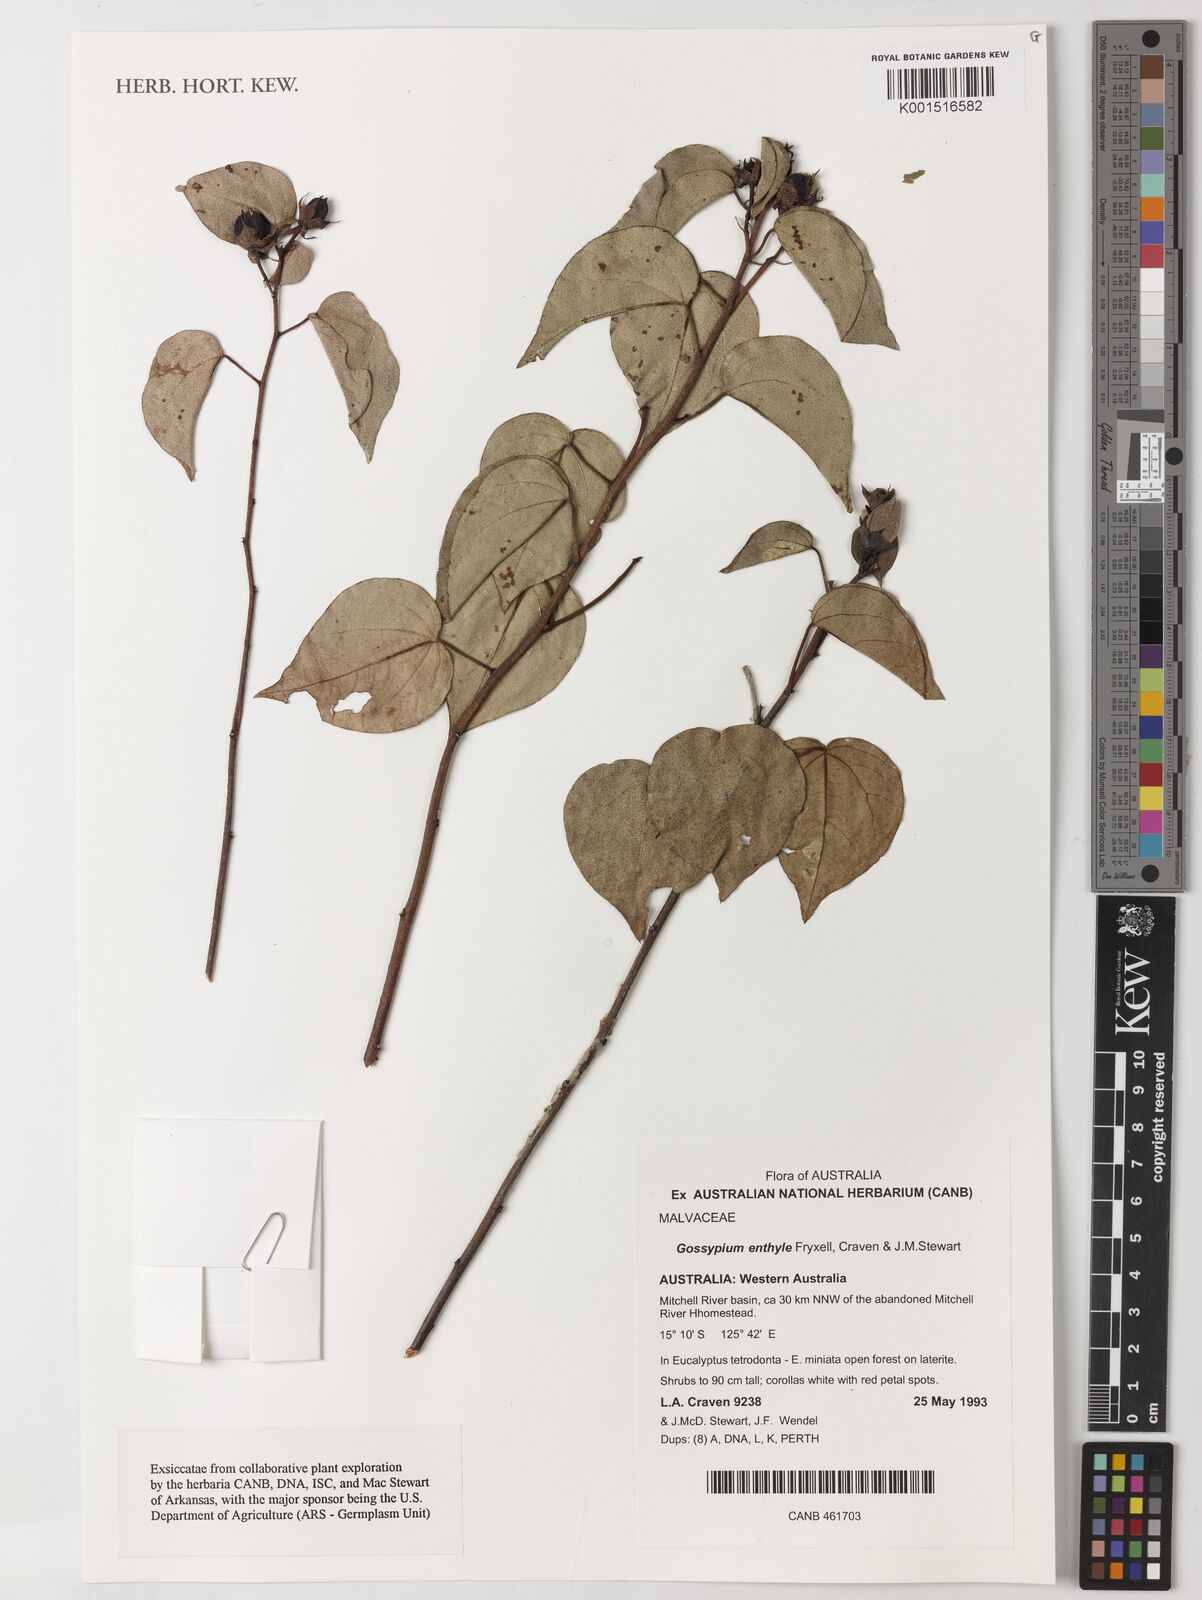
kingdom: Plantae
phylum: Tracheophyta
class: Magnoliopsida
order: Malvales
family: Malvaceae
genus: Gossypium
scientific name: Gossypium enthyle
